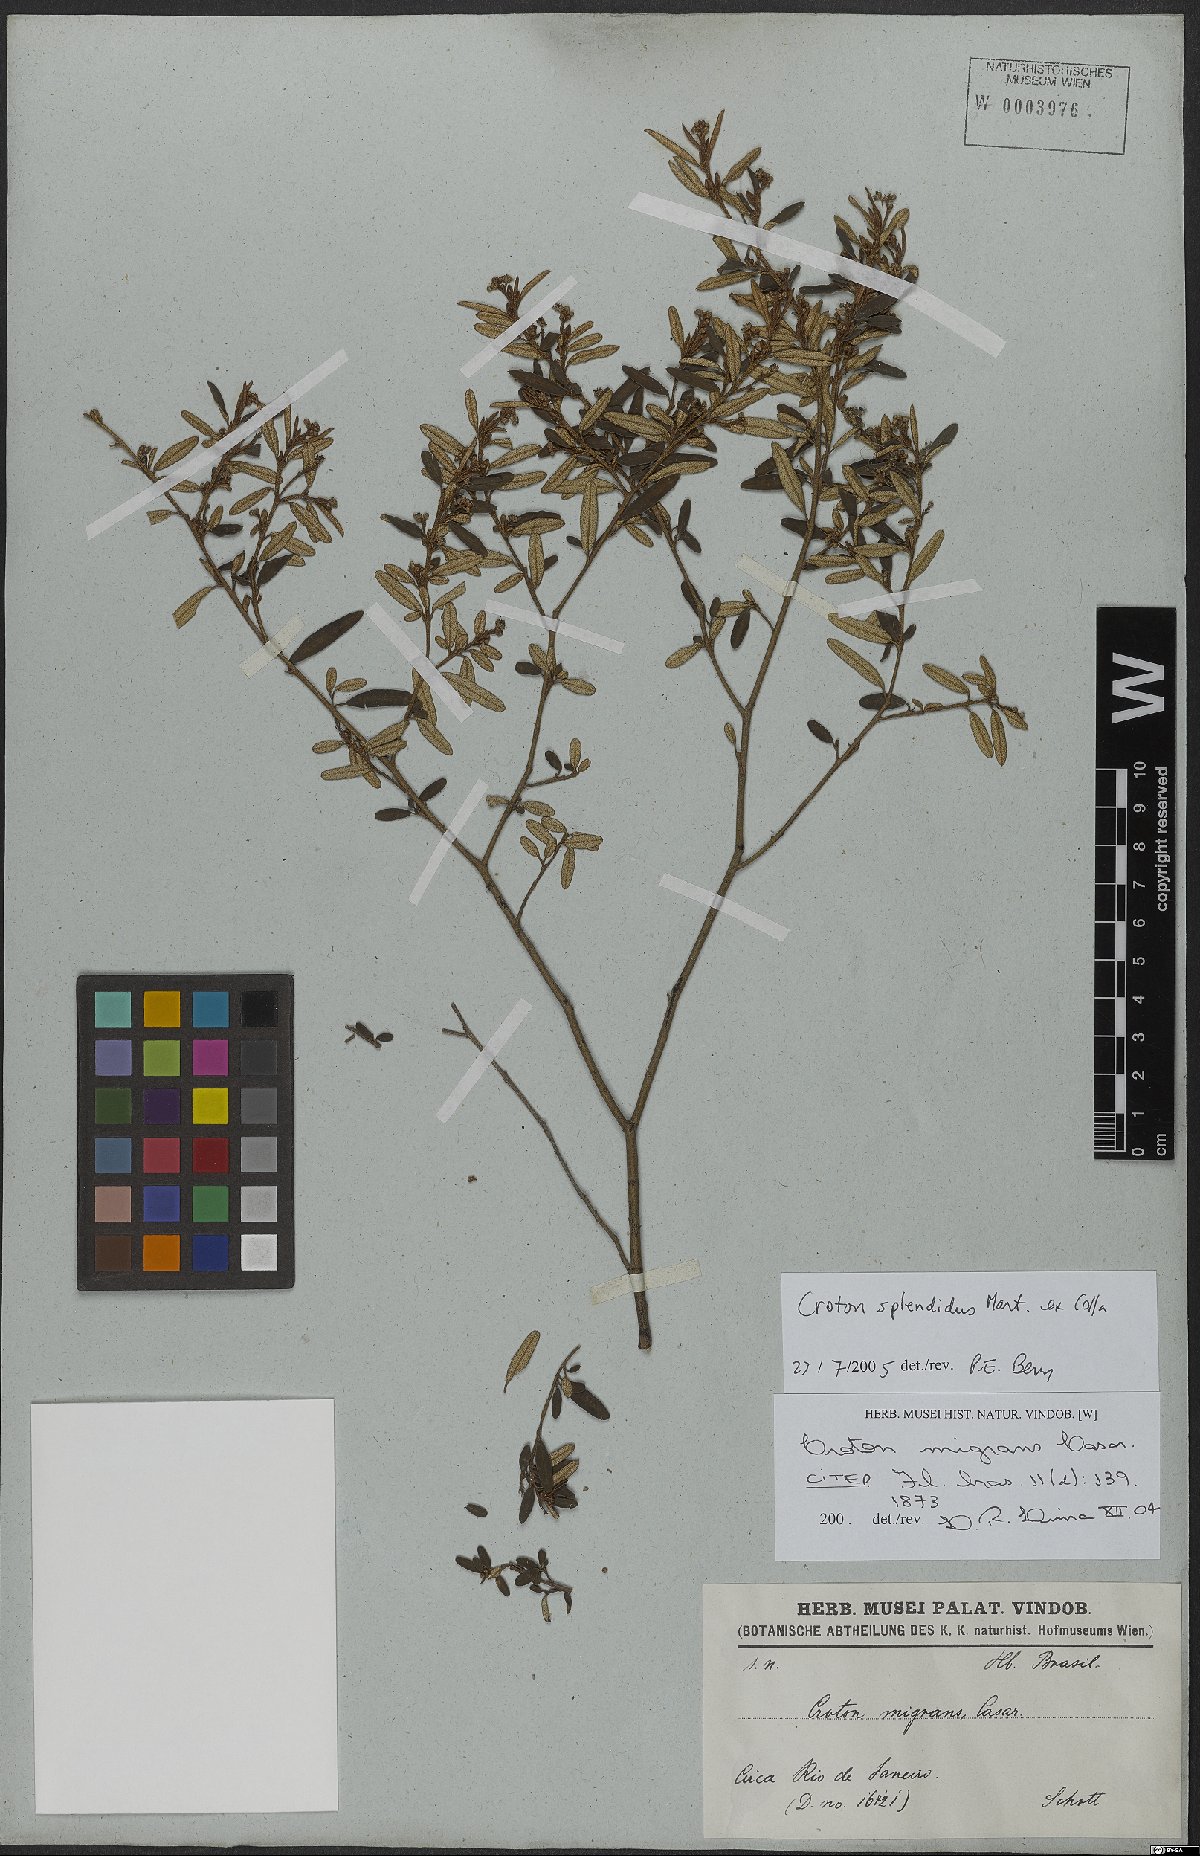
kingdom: Plantae
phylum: Tracheophyta
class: Magnoliopsida
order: Malpighiales
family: Euphorbiaceae
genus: Croton
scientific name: Croton splendidus
